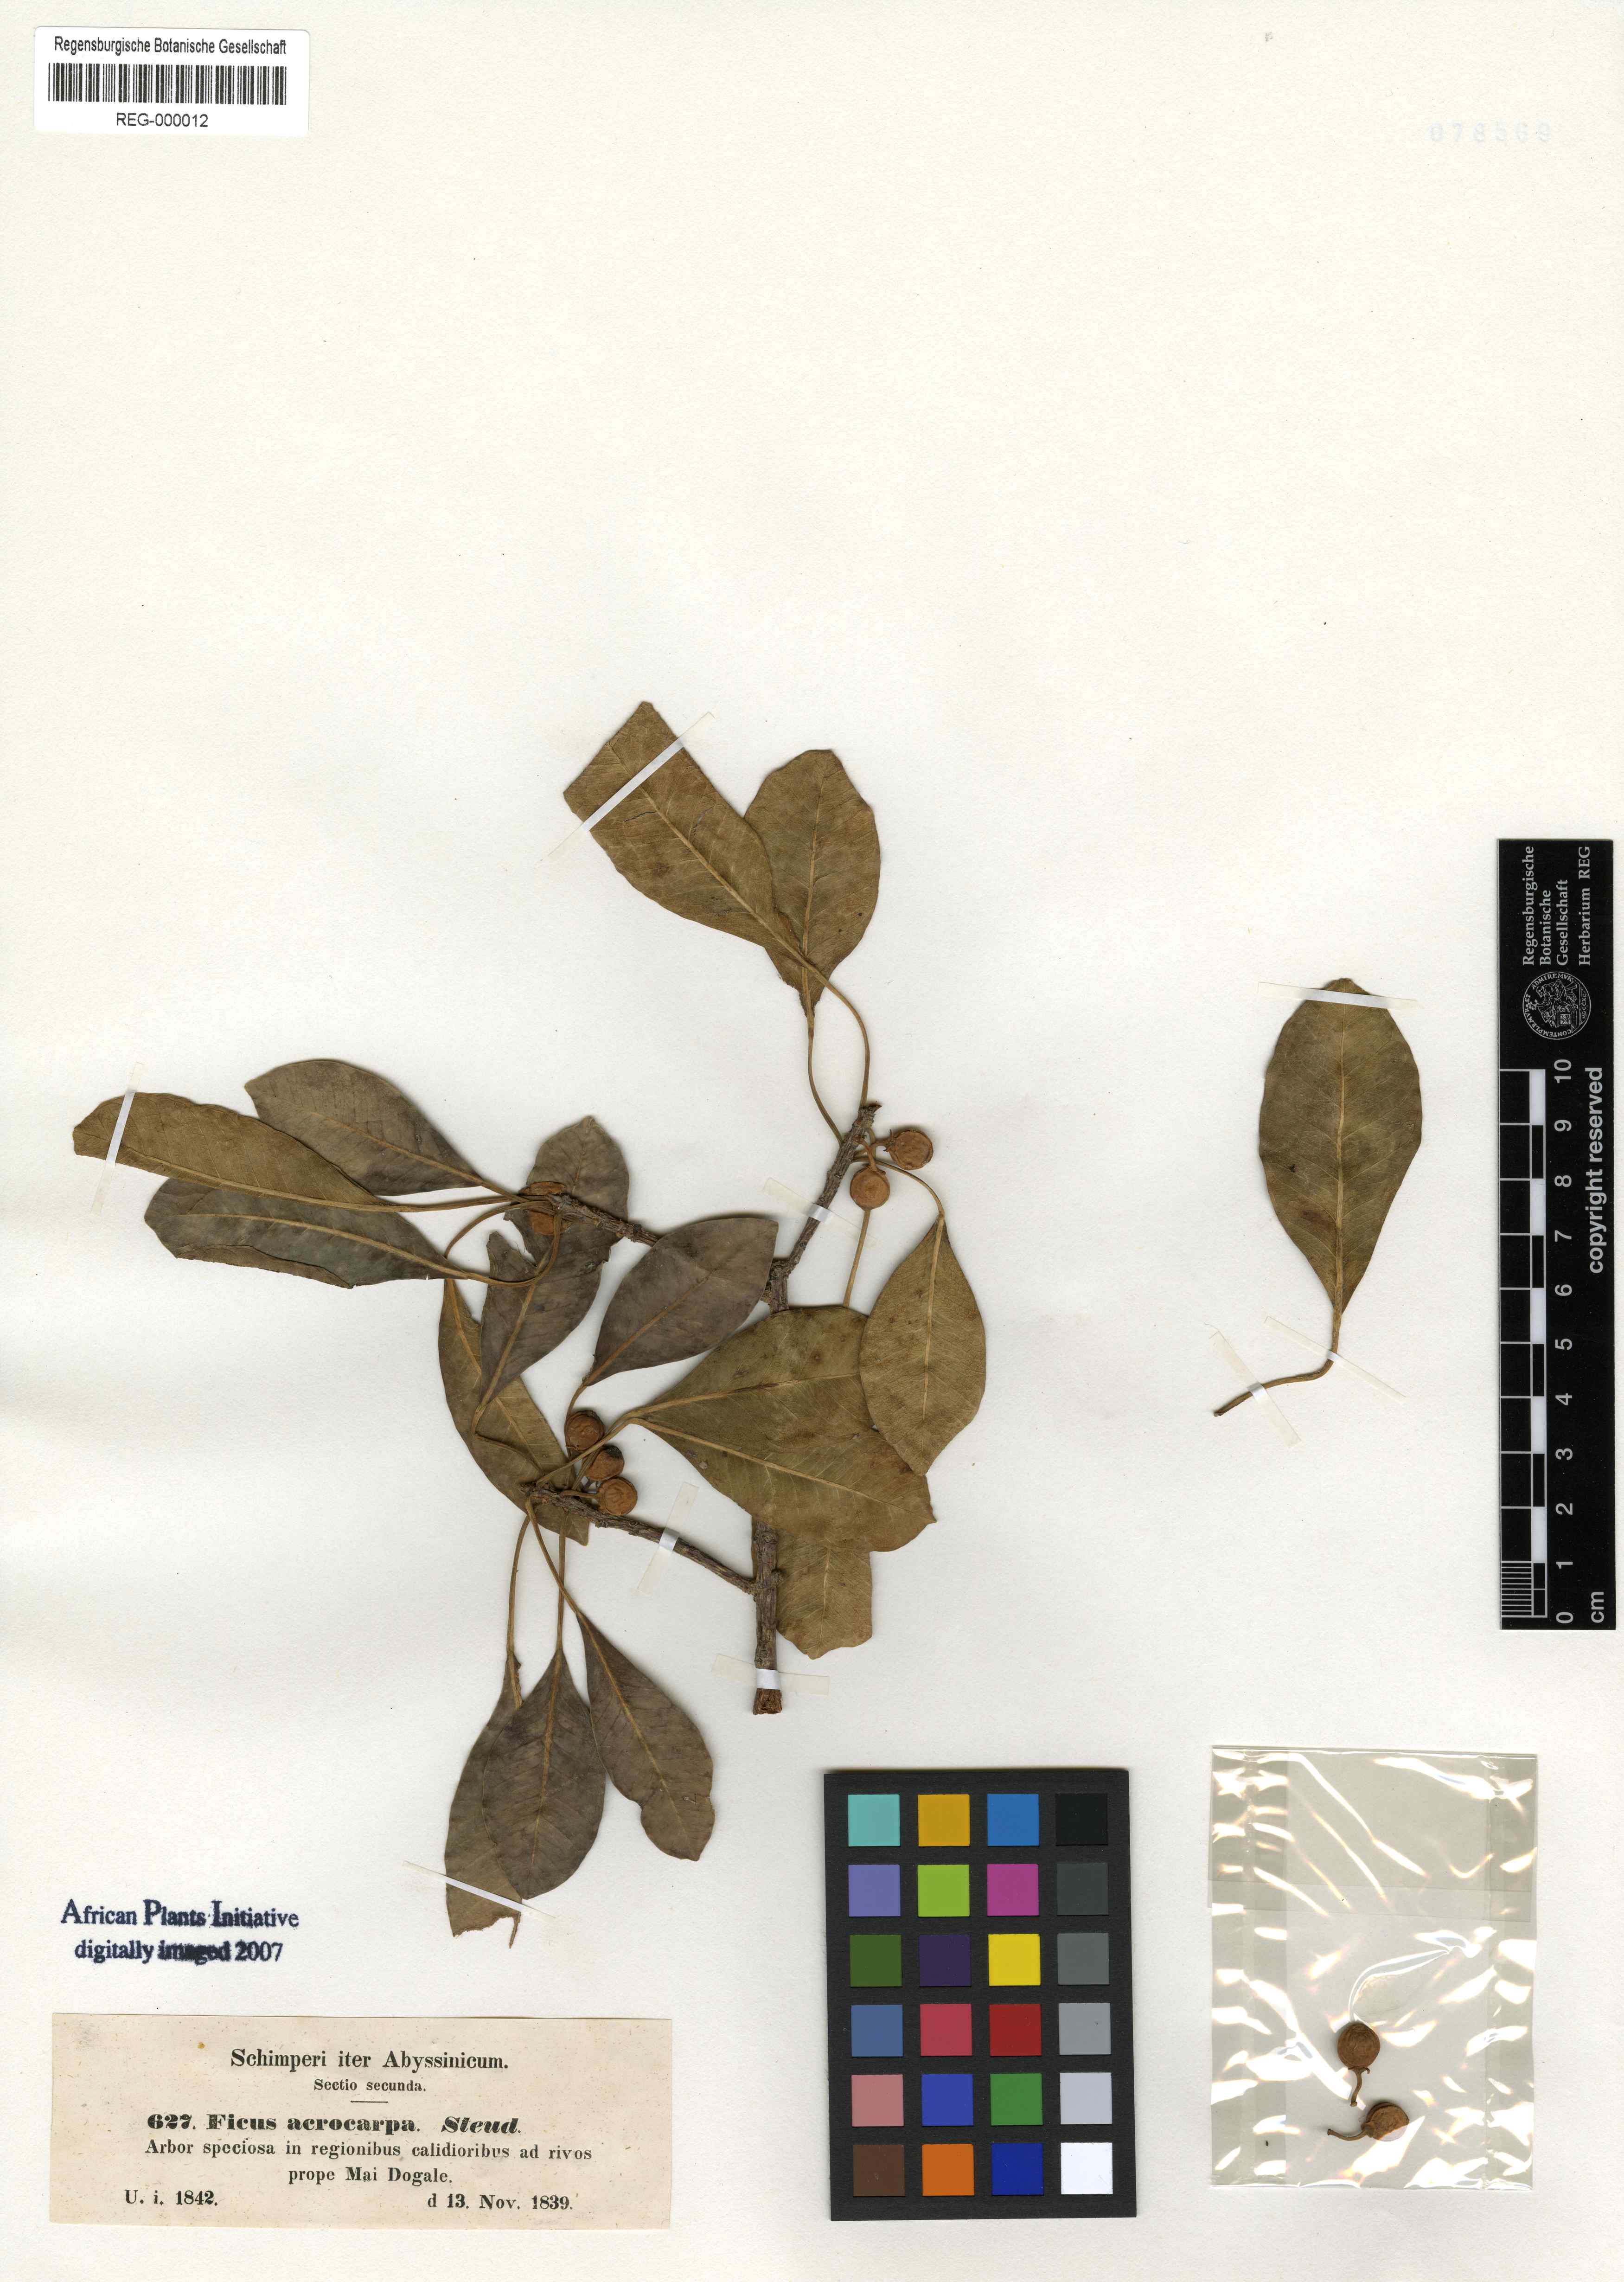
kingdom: Plantae
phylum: Tracheophyta
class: Magnoliopsida
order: Rosales
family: Moraceae
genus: Ficus
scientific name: Ficus thonningii
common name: Fig
